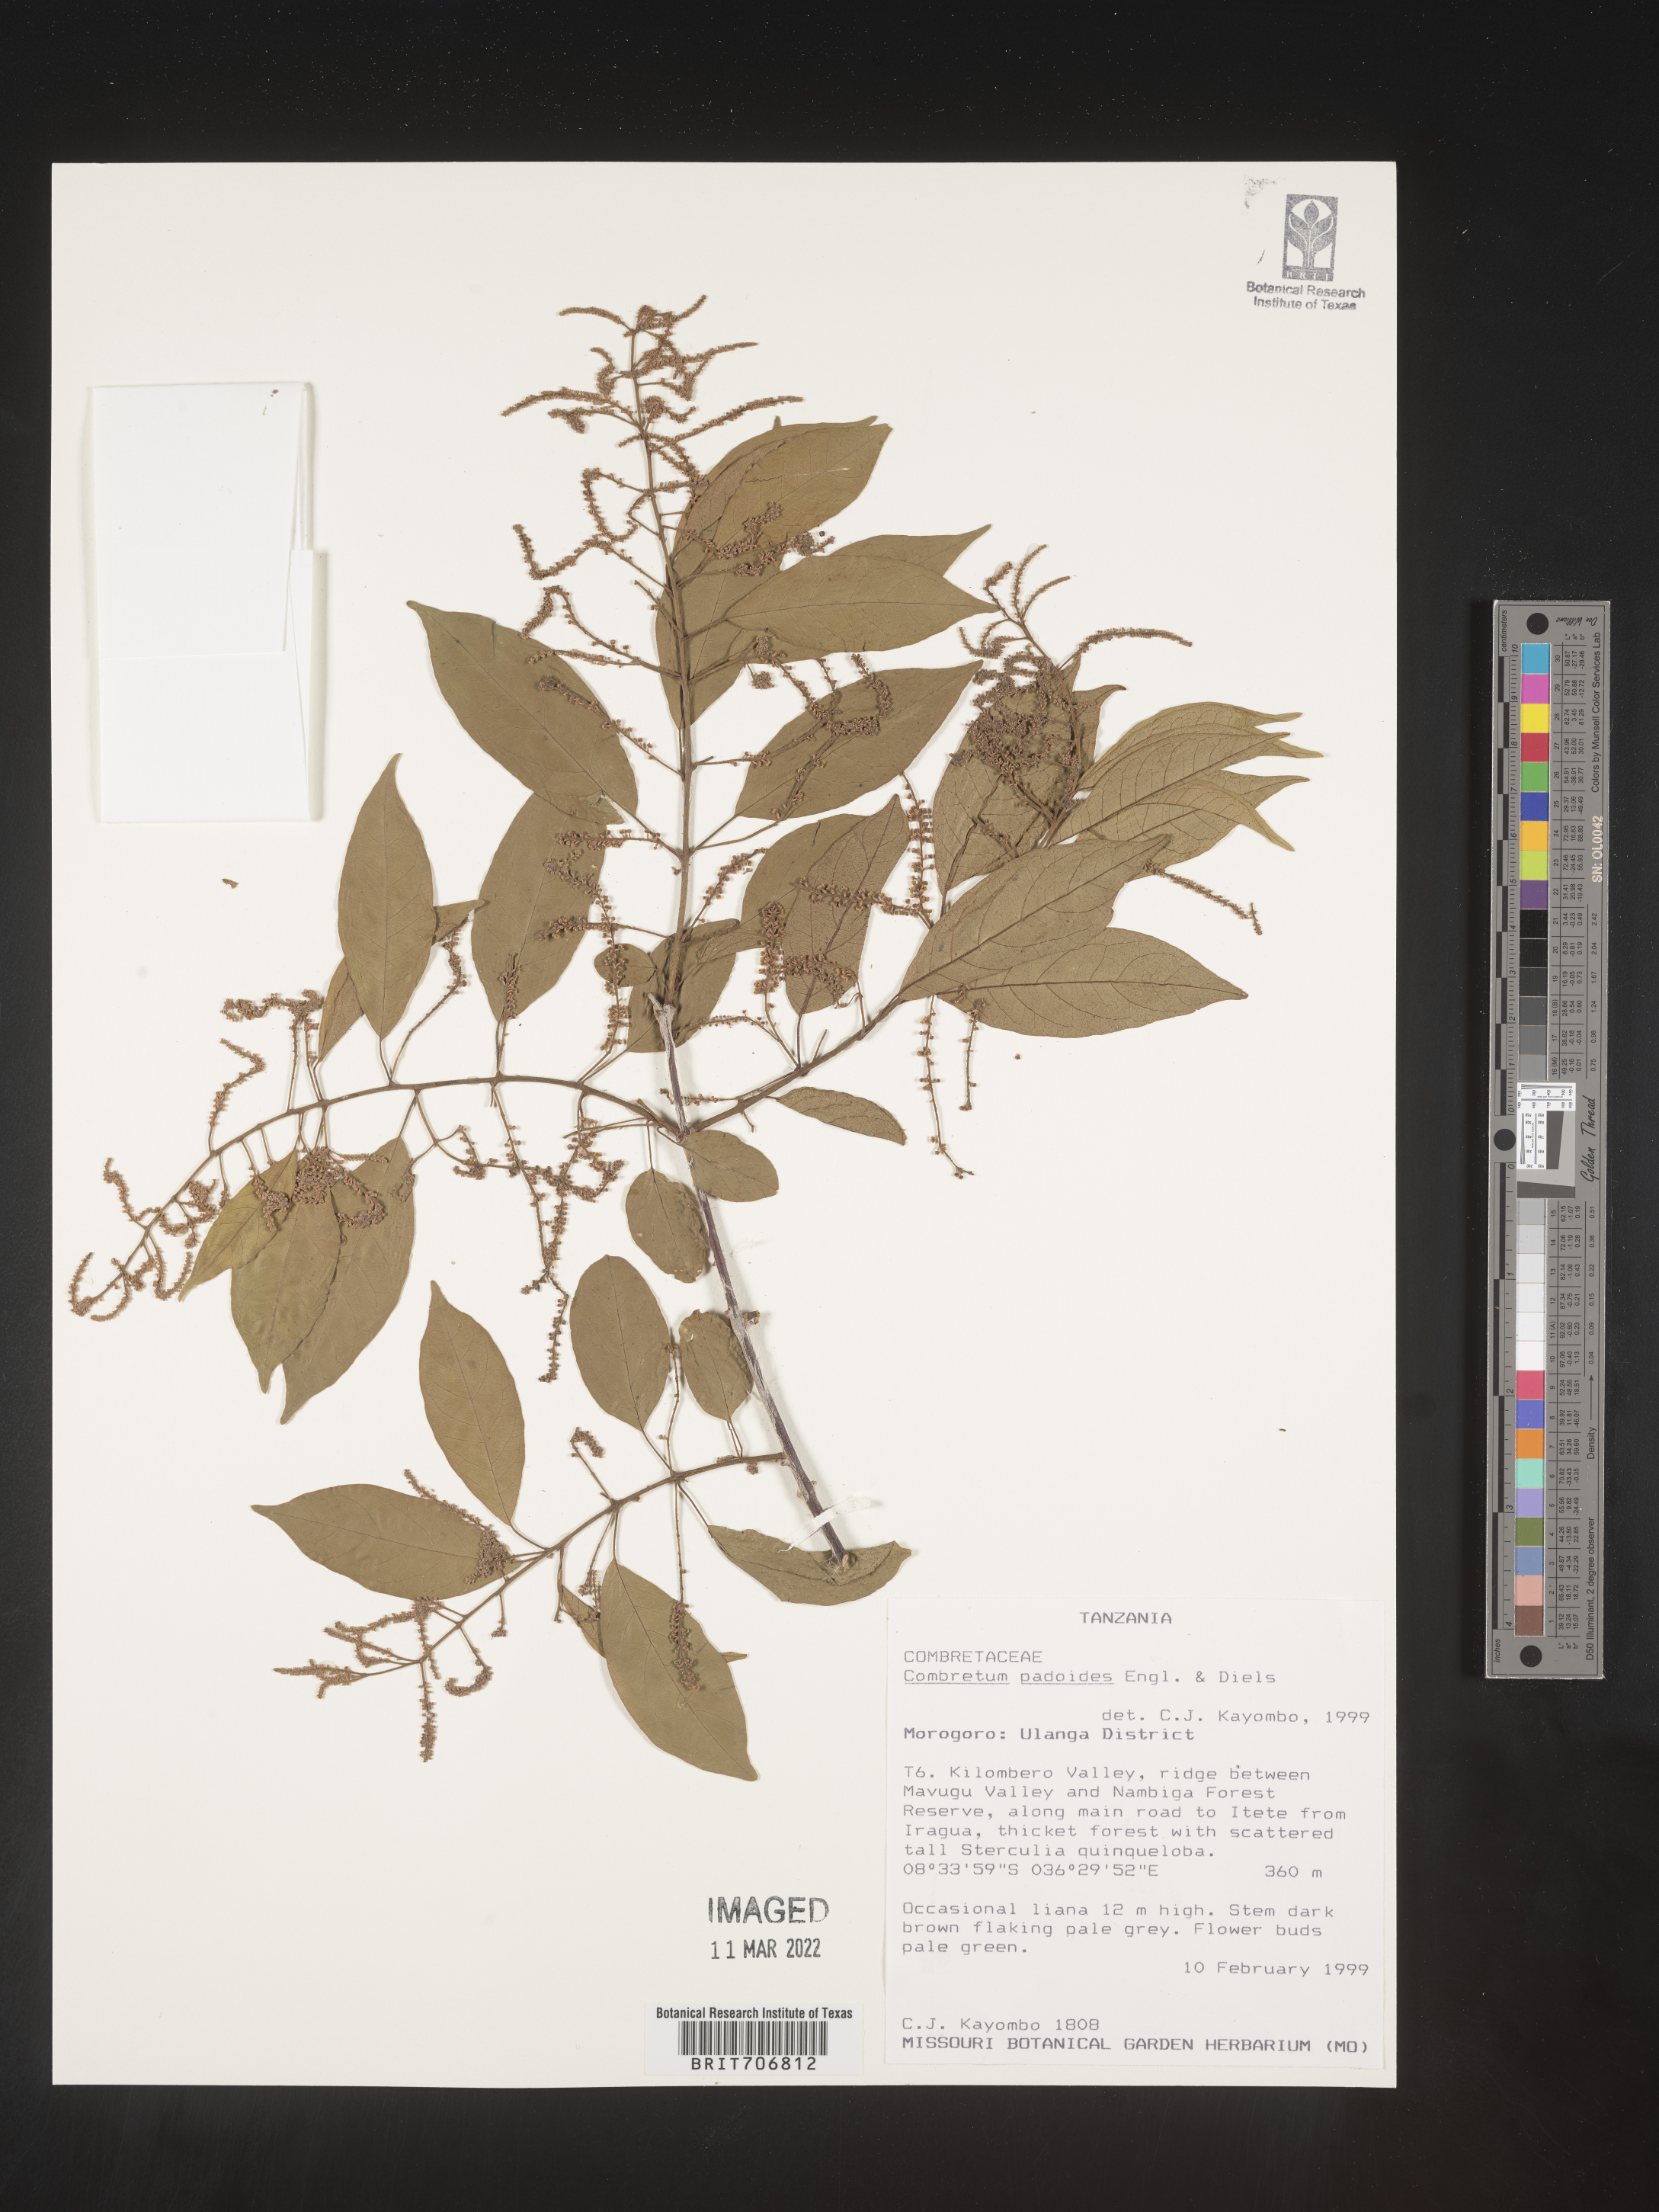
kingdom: Plantae
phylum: Tracheophyta
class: Magnoliopsida
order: Myrtales
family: Combretaceae
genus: Combretum
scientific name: Combretum
